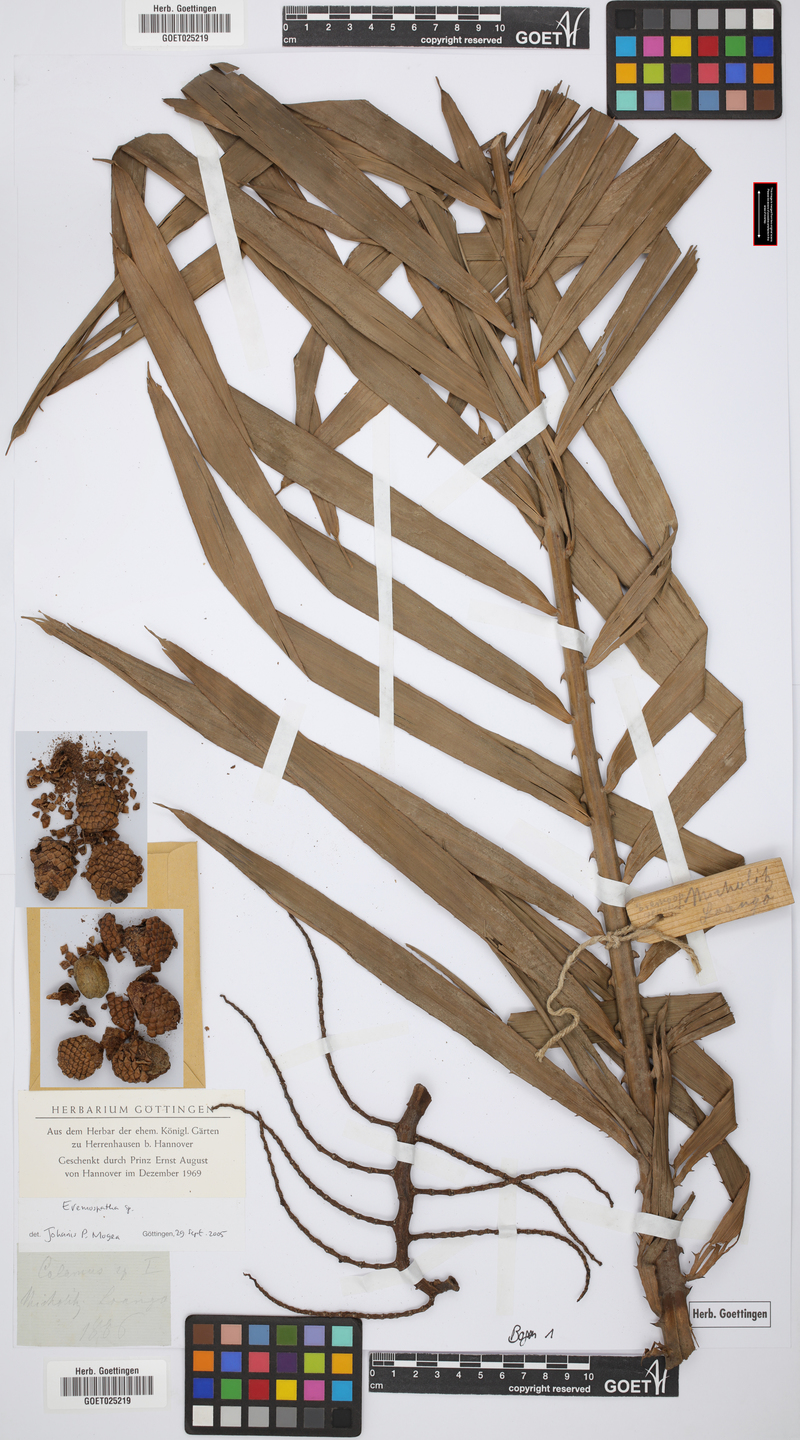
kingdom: Plantae
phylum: Tracheophyta
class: Liliopsida
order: Arecales
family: Arecaceae
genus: Eremospatha
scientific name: Eremospatha
